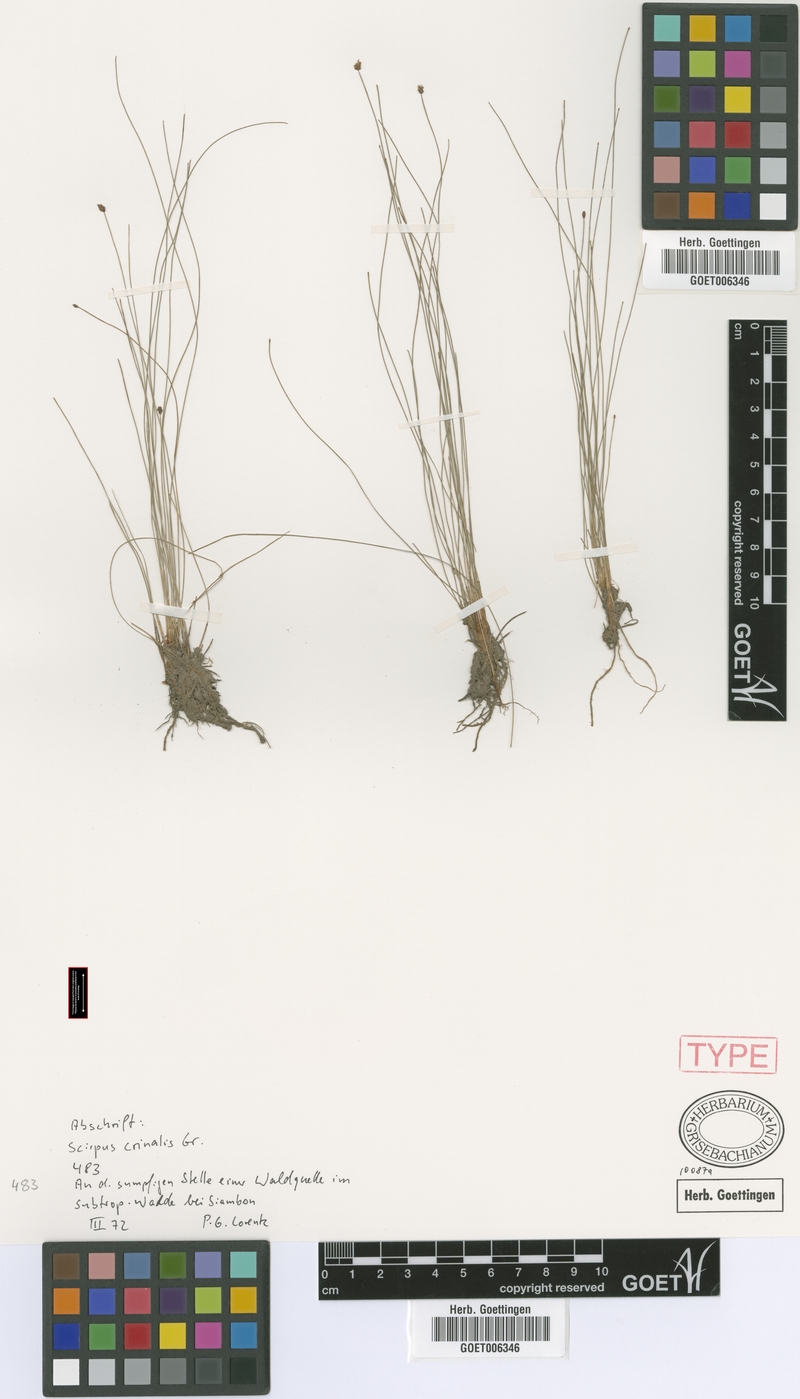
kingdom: Plantae
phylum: Tracheophyta
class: Liliopsida
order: Poales
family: Cyperaceae
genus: Eleocharis
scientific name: Eleocharis crinalis
